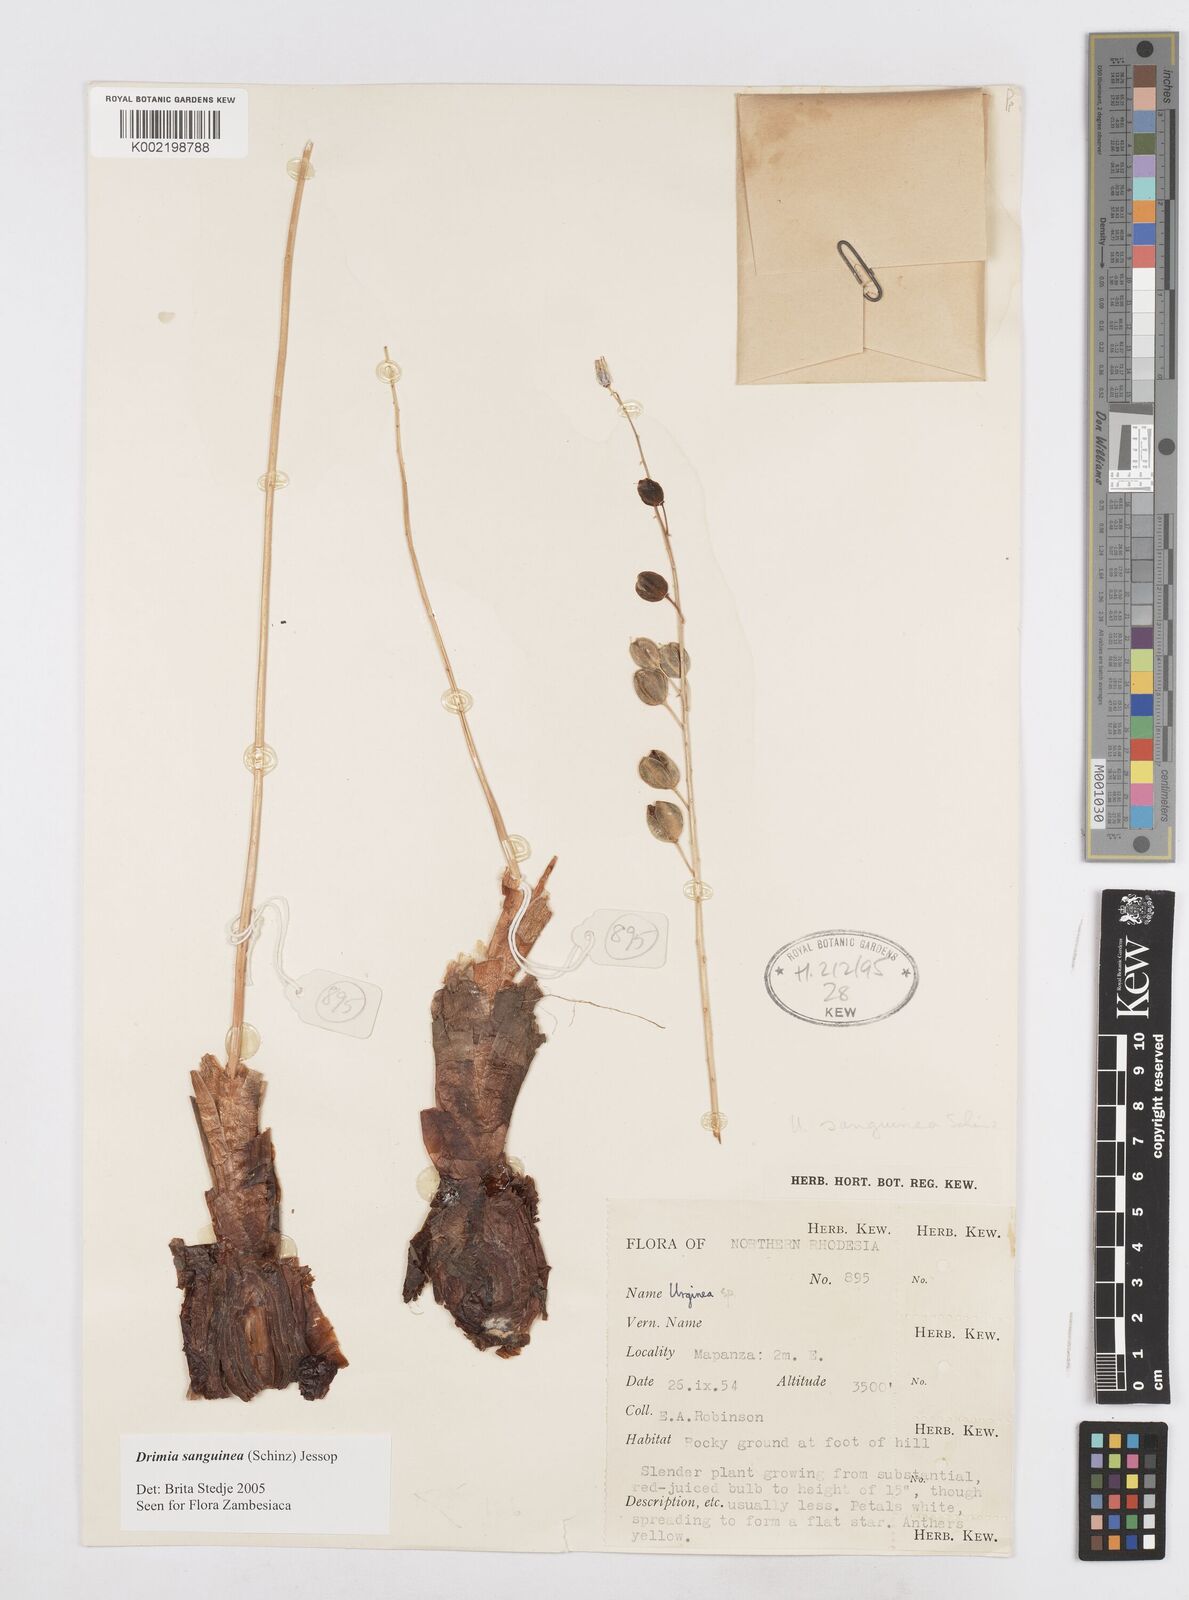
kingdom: Plantae
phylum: Tracheophyta
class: Liliopsida
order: Asparagales
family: Asparagaceae
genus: Drimia
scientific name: Drimia sanguinea
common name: Transvaal slangkop
